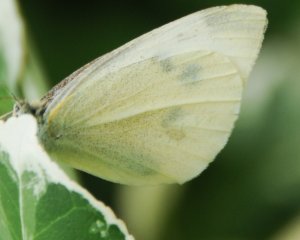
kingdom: Animalia
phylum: Arthropoda
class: Insecta
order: Lepidoptera
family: Pieridae
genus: Pieris
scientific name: Pieris rapae
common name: Cabbage White
